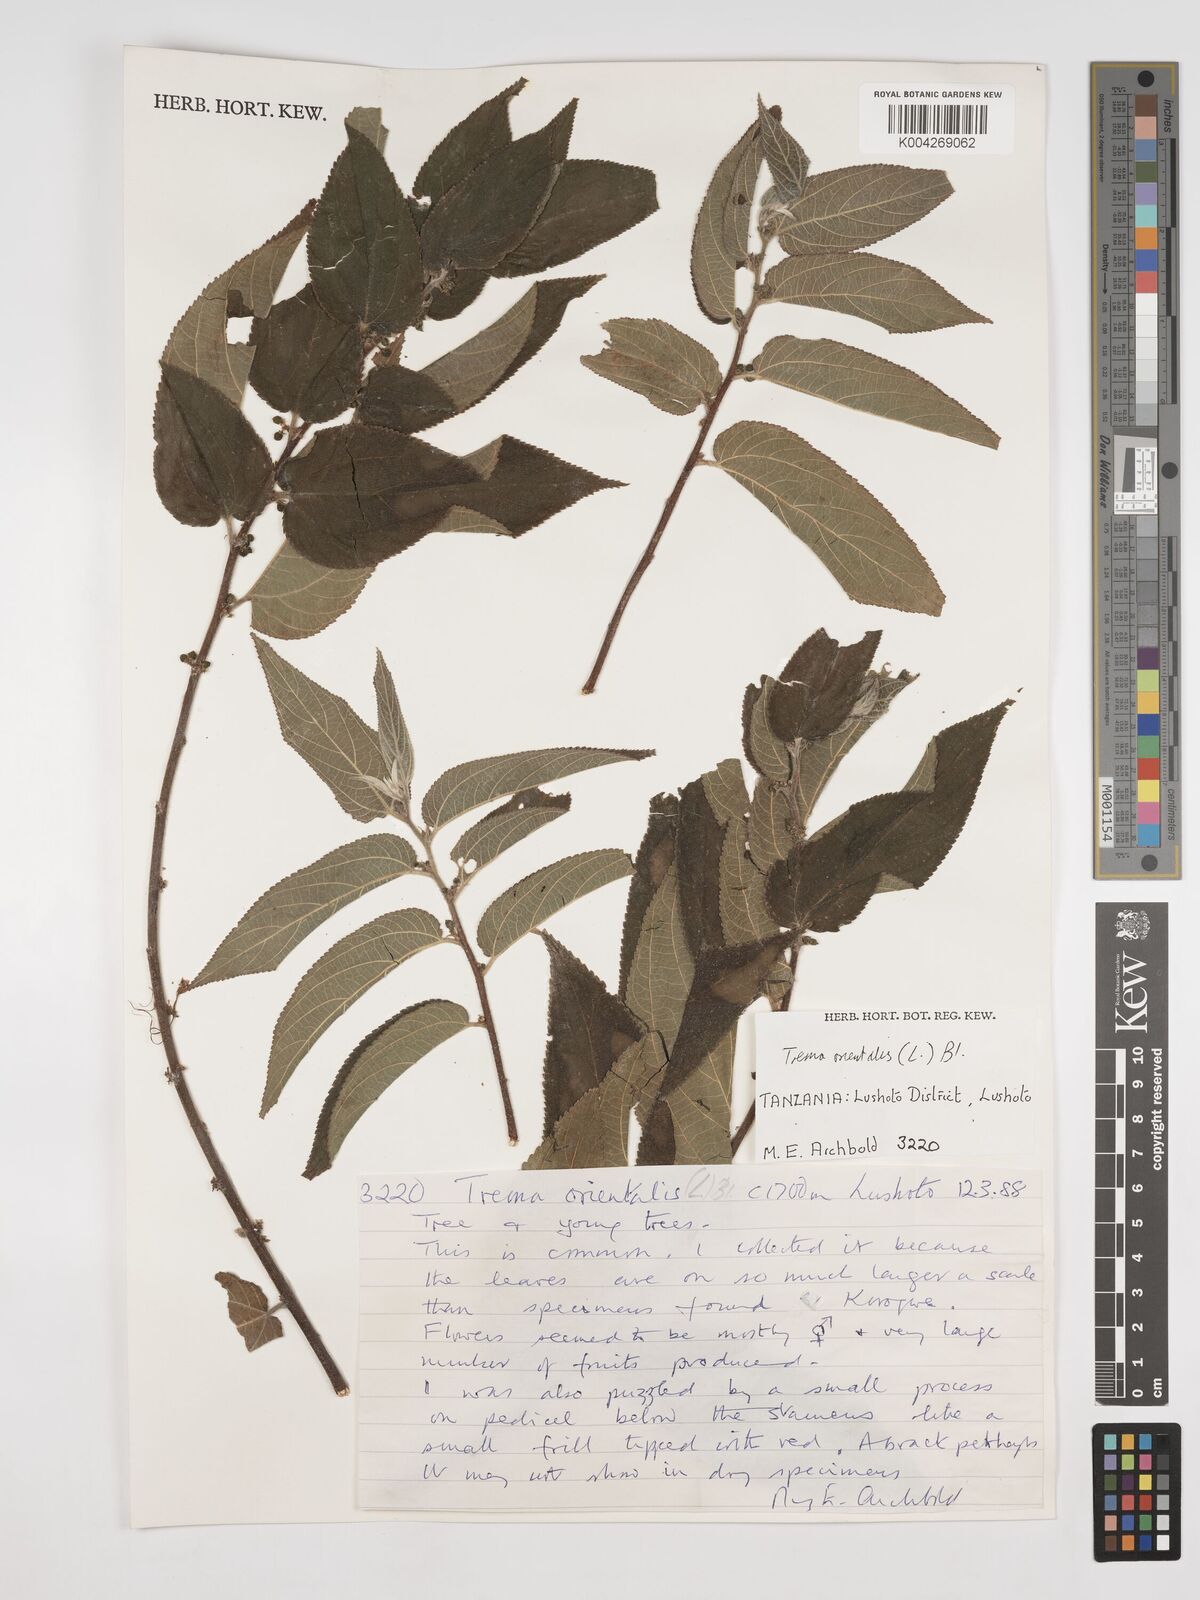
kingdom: Plantae
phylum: Tracheophyta
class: Magnoliopsida
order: Rosales
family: Cannabaceae
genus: Trema
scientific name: Trema orientale
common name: Indian charcoal tree
